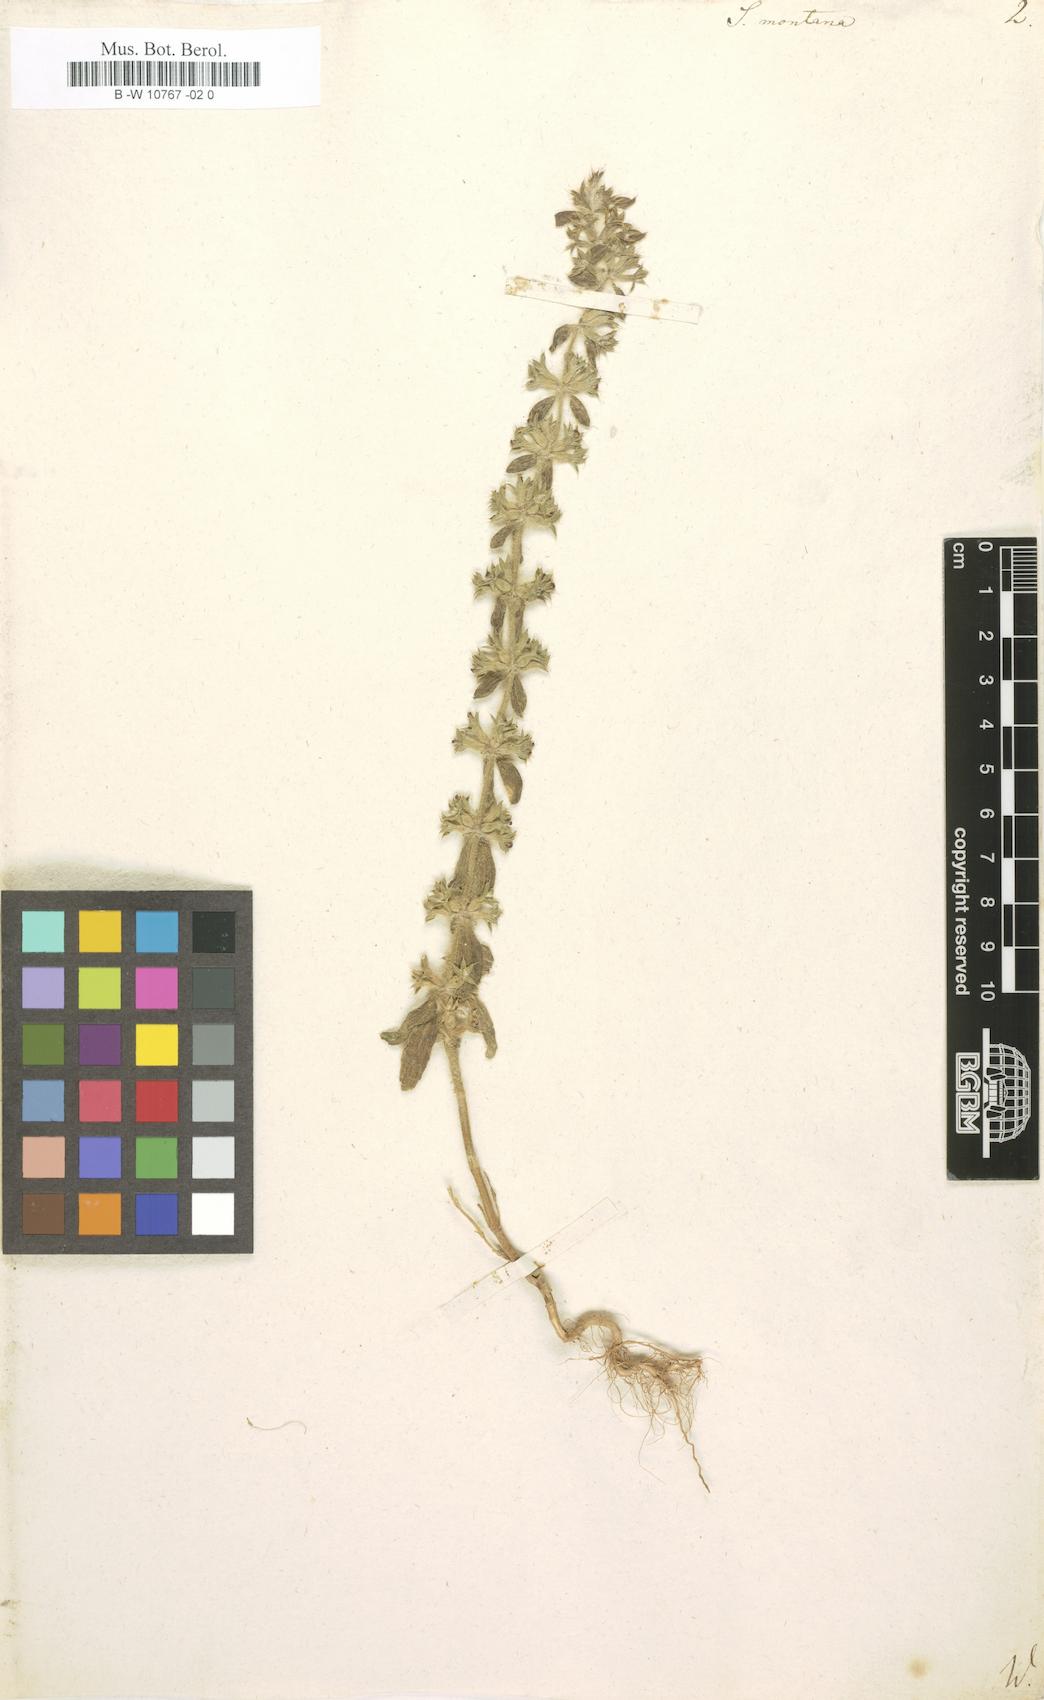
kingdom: Plantae
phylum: Tracheophyta
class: Magnoliopsida
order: Lamiales
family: Lamiaceae
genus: Sideritis
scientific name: Sideritis montana
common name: Mountain ironwort
